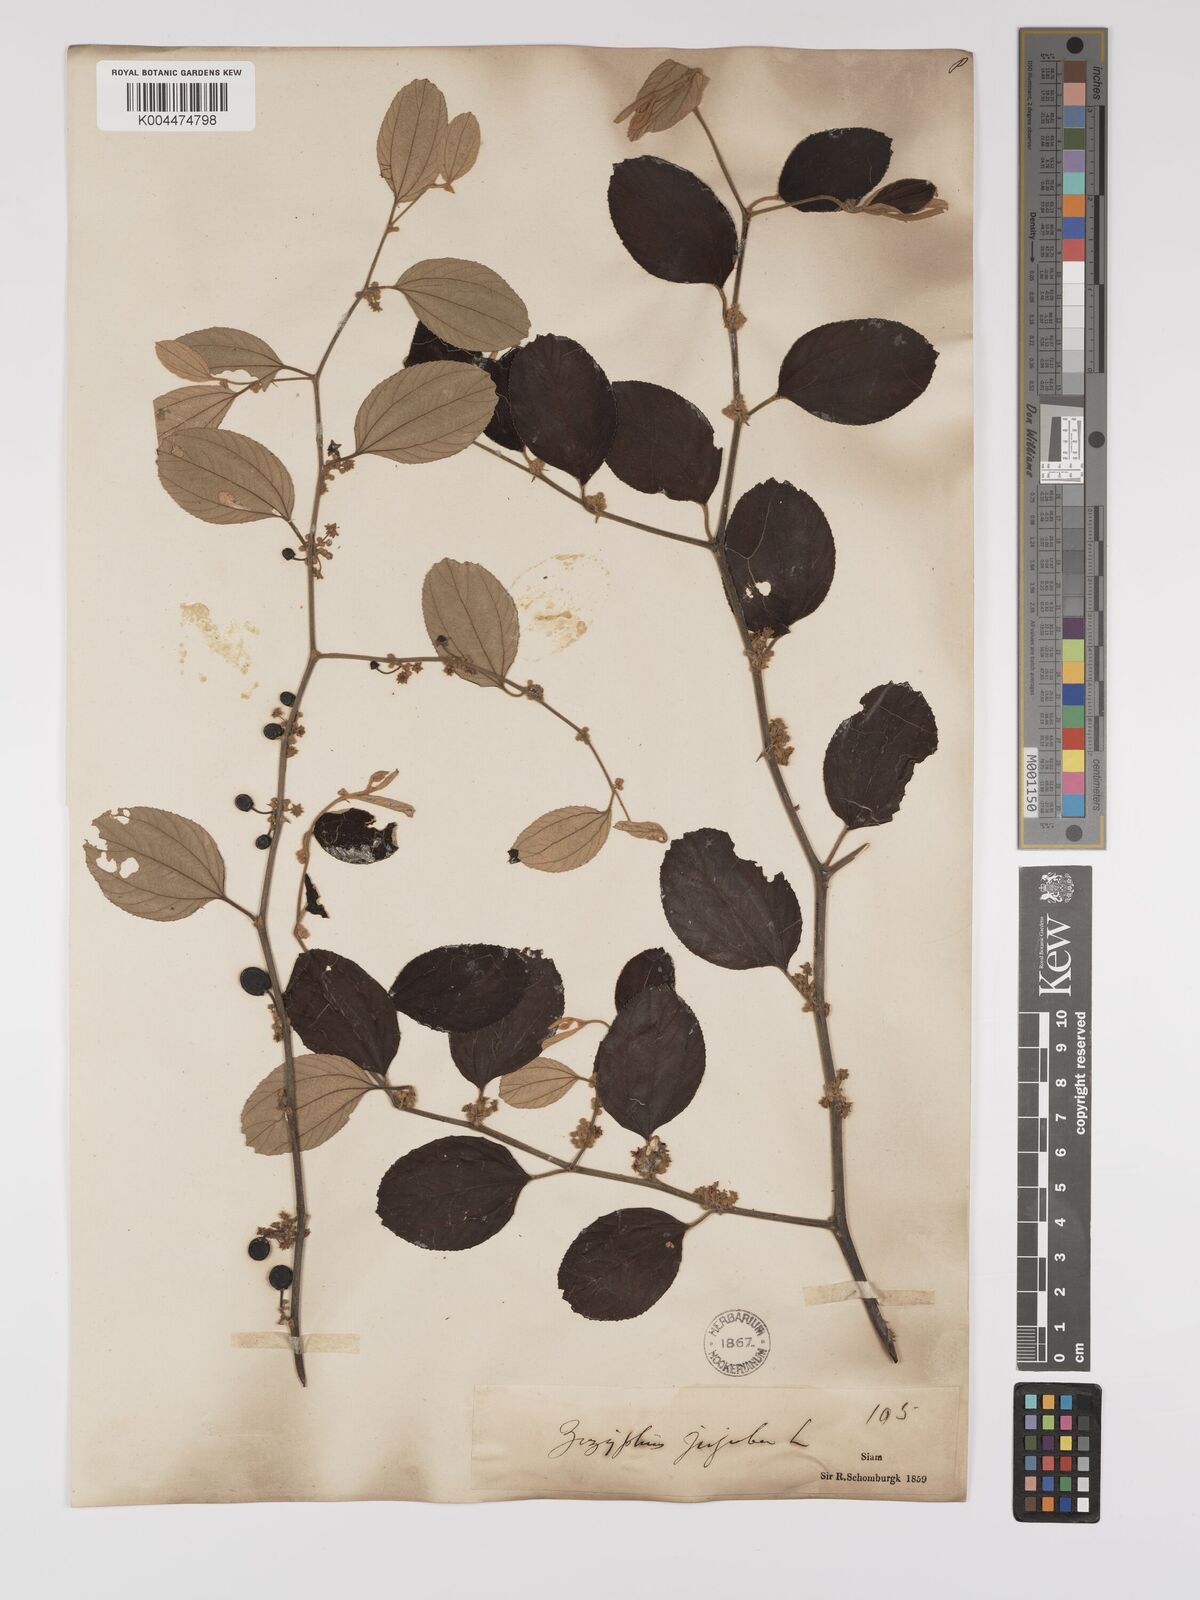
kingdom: Plantae
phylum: Tracheophyta
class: Magnoliopsida
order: Rosales
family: Rhamnaceae
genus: Ziziphus
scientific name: Ziziphus mauritiana
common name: Indian jujube
